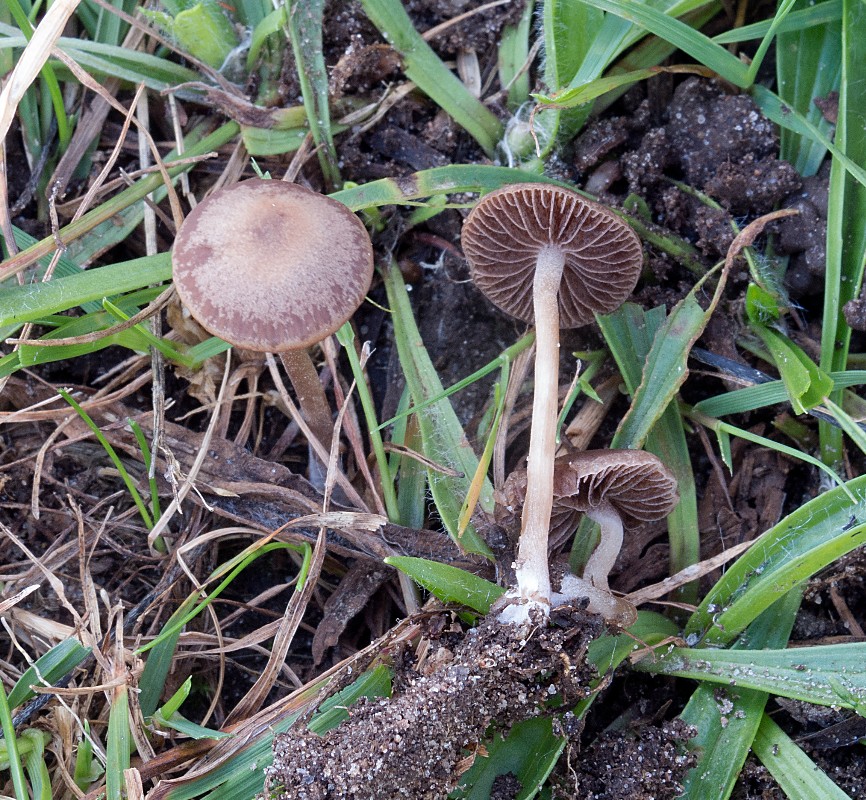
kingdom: Fungi
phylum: Basidiomycota
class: Agaricomycetes
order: Agaricales
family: Bolbitiaceae
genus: Panaeolina
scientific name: Panaeolina foenisecii
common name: høslætsvamp
